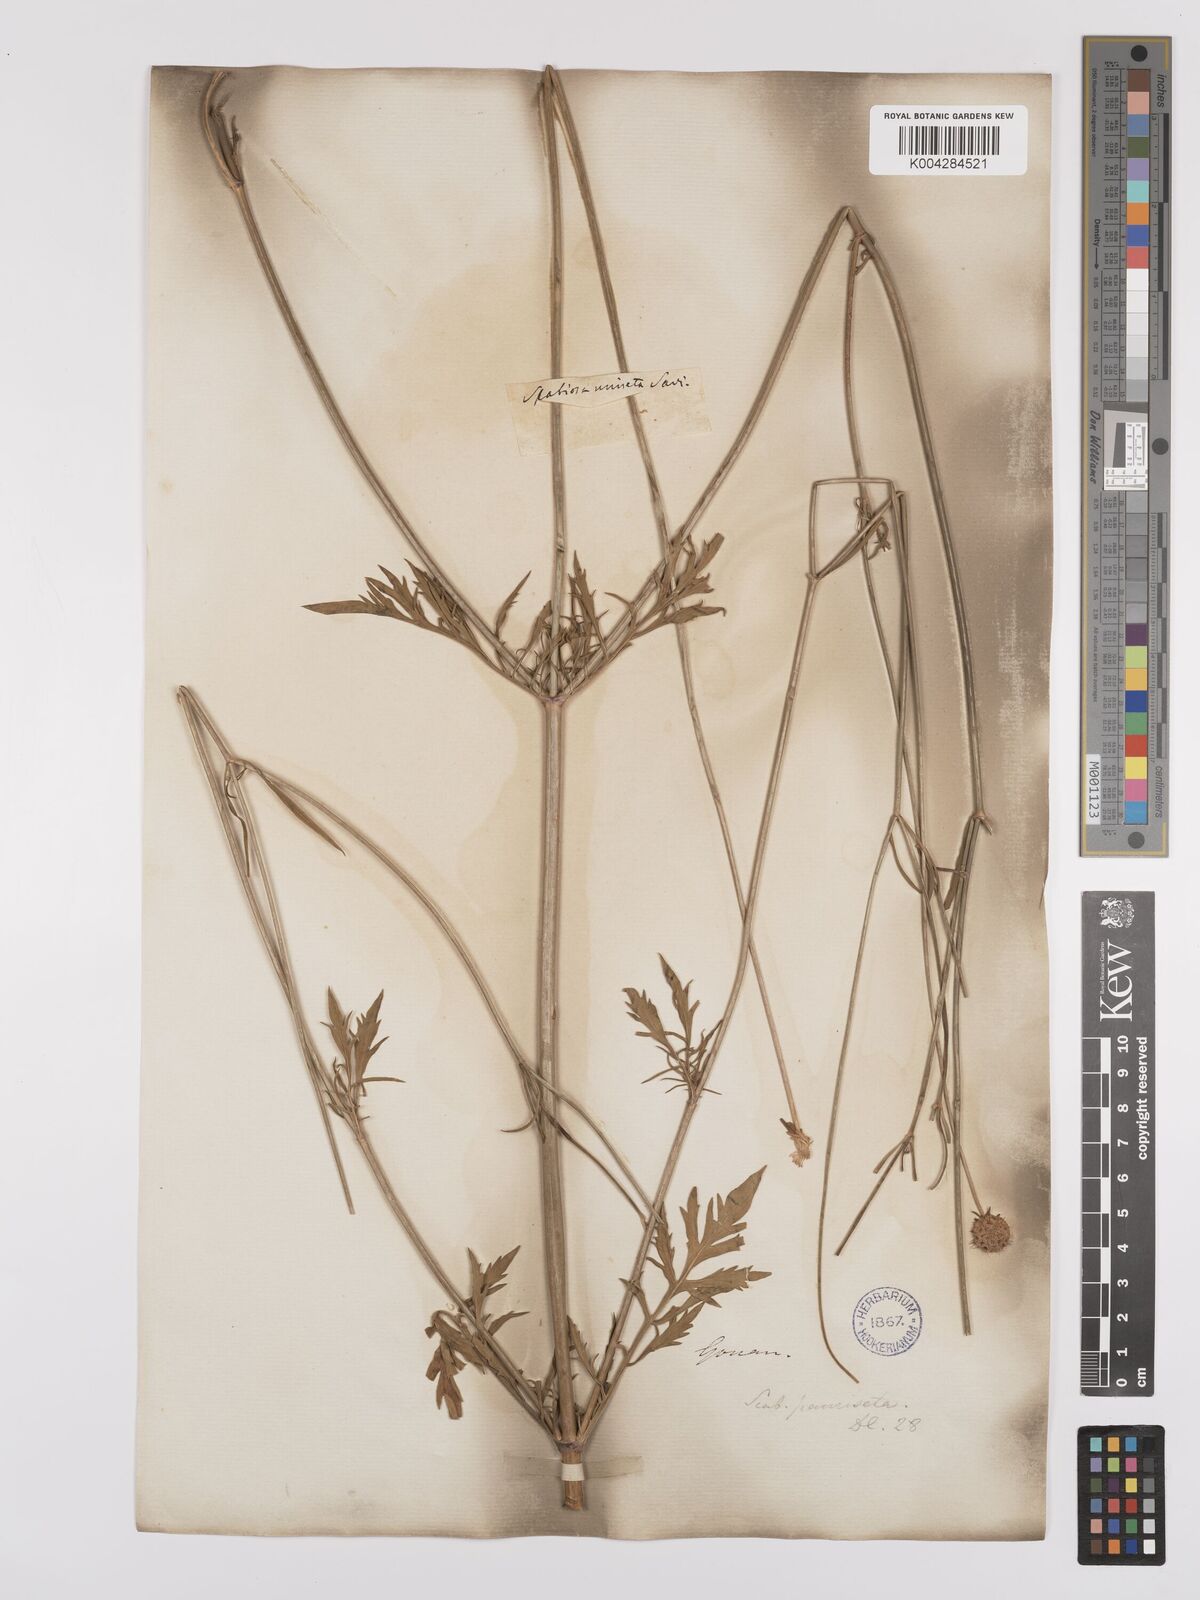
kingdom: Plantae
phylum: Tracheophyta
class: Magnoliopsida
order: Dipsacales
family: Caprifoliaceae
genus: Scabiosa
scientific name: Scabiosa triandra
